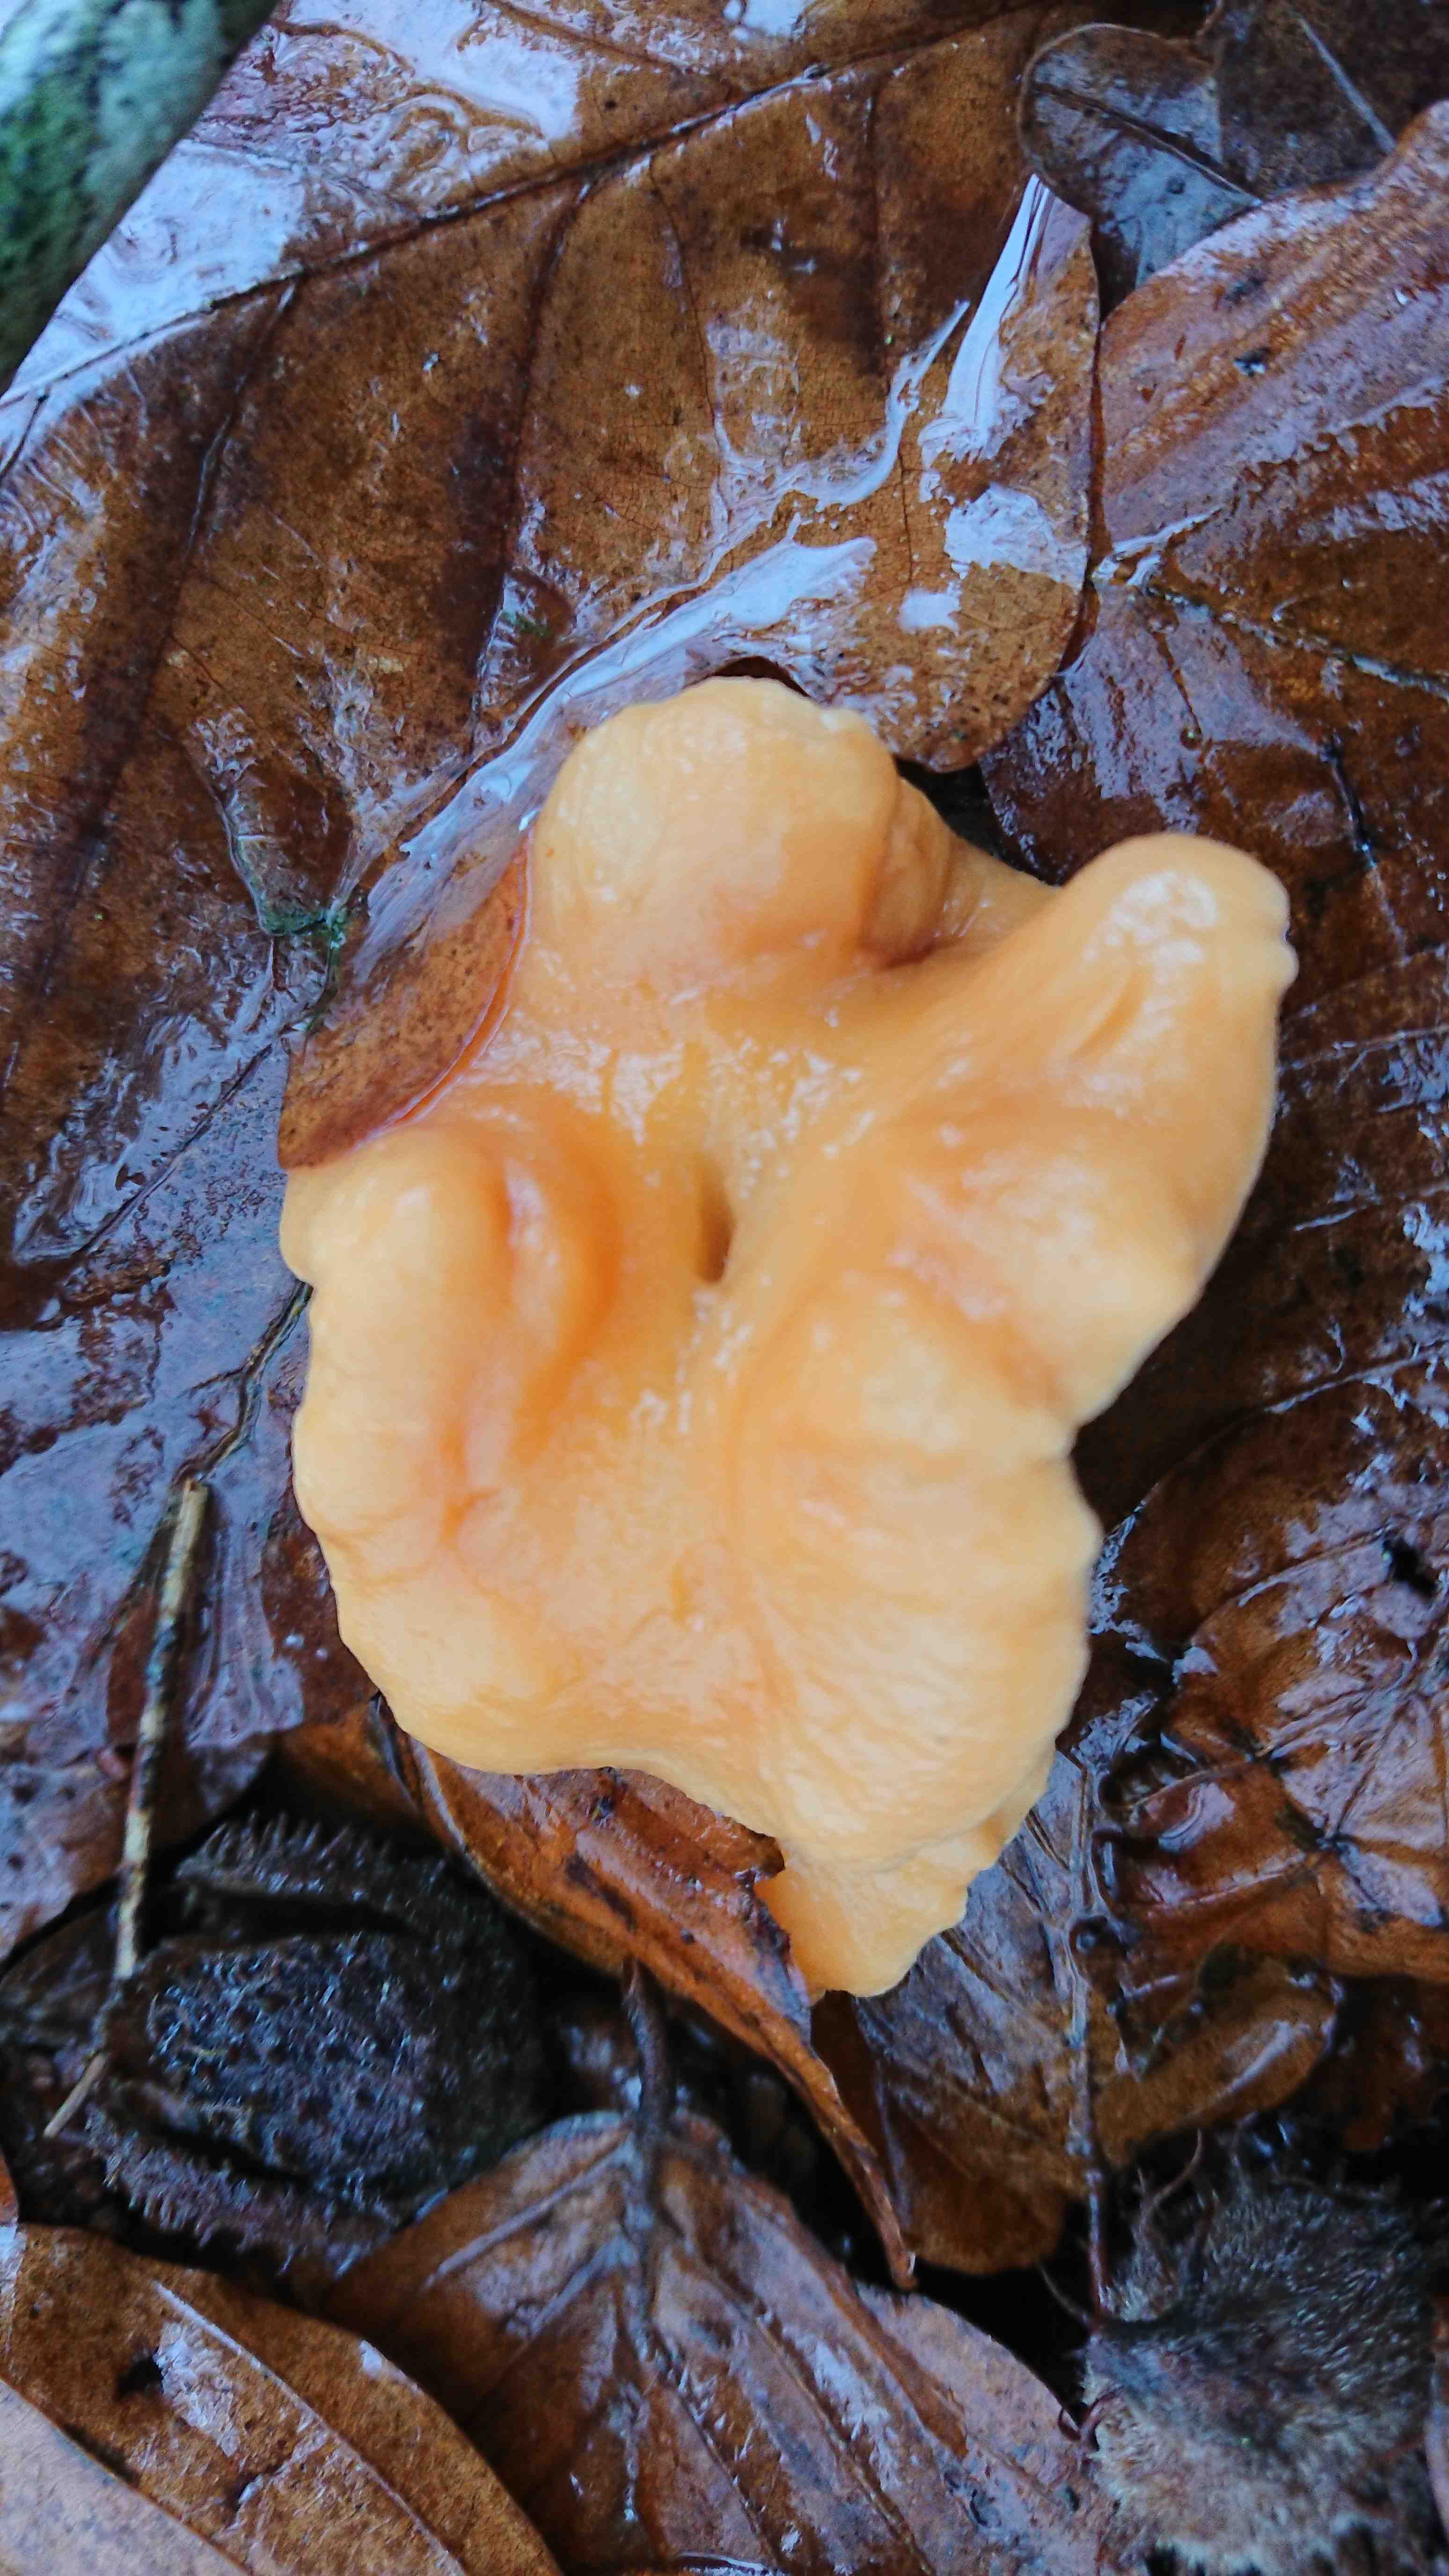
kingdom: Fungi
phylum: Basidiomycota
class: Agaricomycetes
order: Cantharellales
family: Hydnaceae
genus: Hydnum
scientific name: Hydnum
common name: pigsvamp
